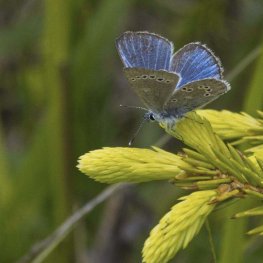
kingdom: Animalia
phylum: Arthropoda
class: Insecta
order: Lepidoptera
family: Lycaenidae
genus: Glaucopsyche
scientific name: Glaucopsyche lygdamus
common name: Silvery Blue
